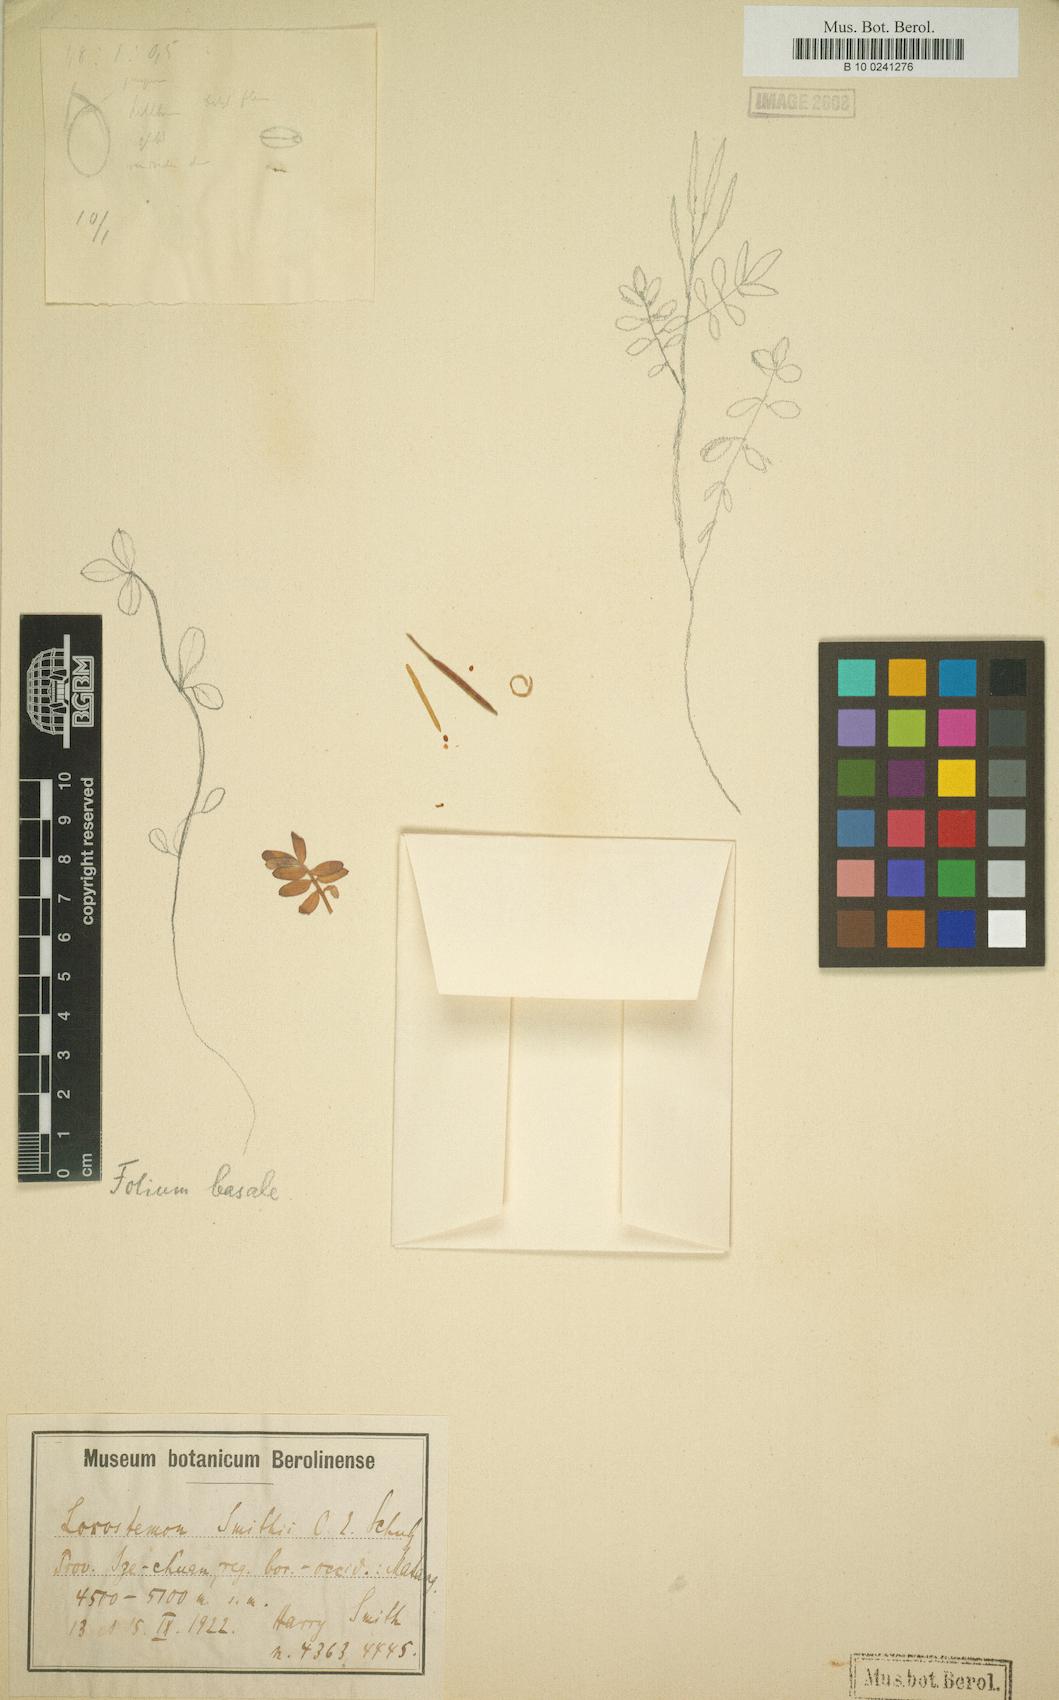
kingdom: Plantae
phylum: Tracheophyta
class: Magnoliopsida
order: Brassicales
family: Brassicaceae
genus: Cardamine
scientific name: Cardamine franchetiana
